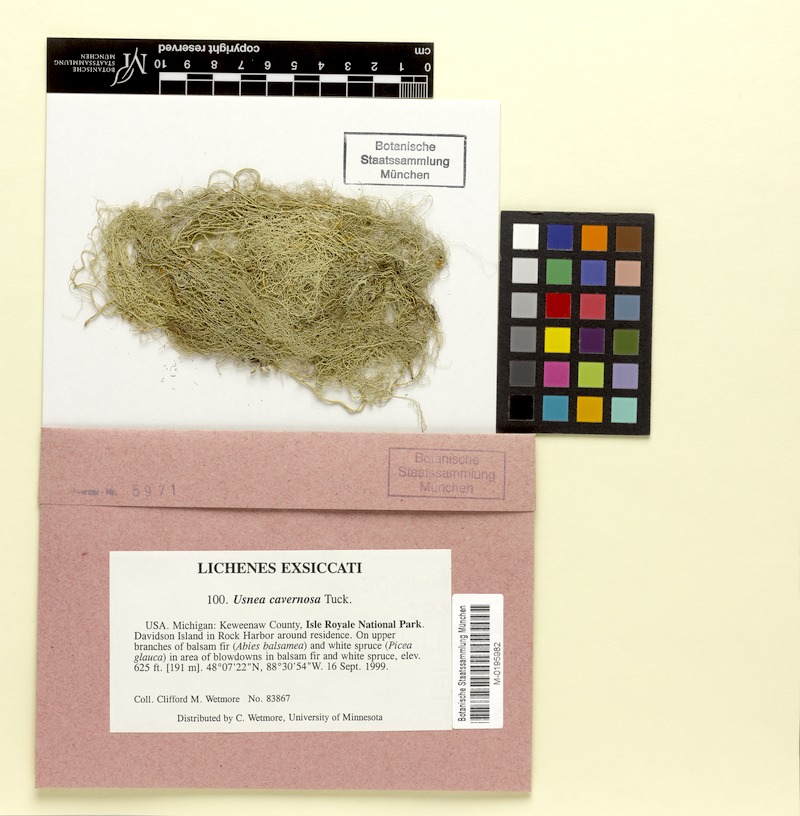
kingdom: Fungi
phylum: Ascomycota
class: Lecanoromycetes
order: Lecanorales
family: Parmeliaceae
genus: Usnea
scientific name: Usnea cavernosa
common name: Pitted beard lichen
